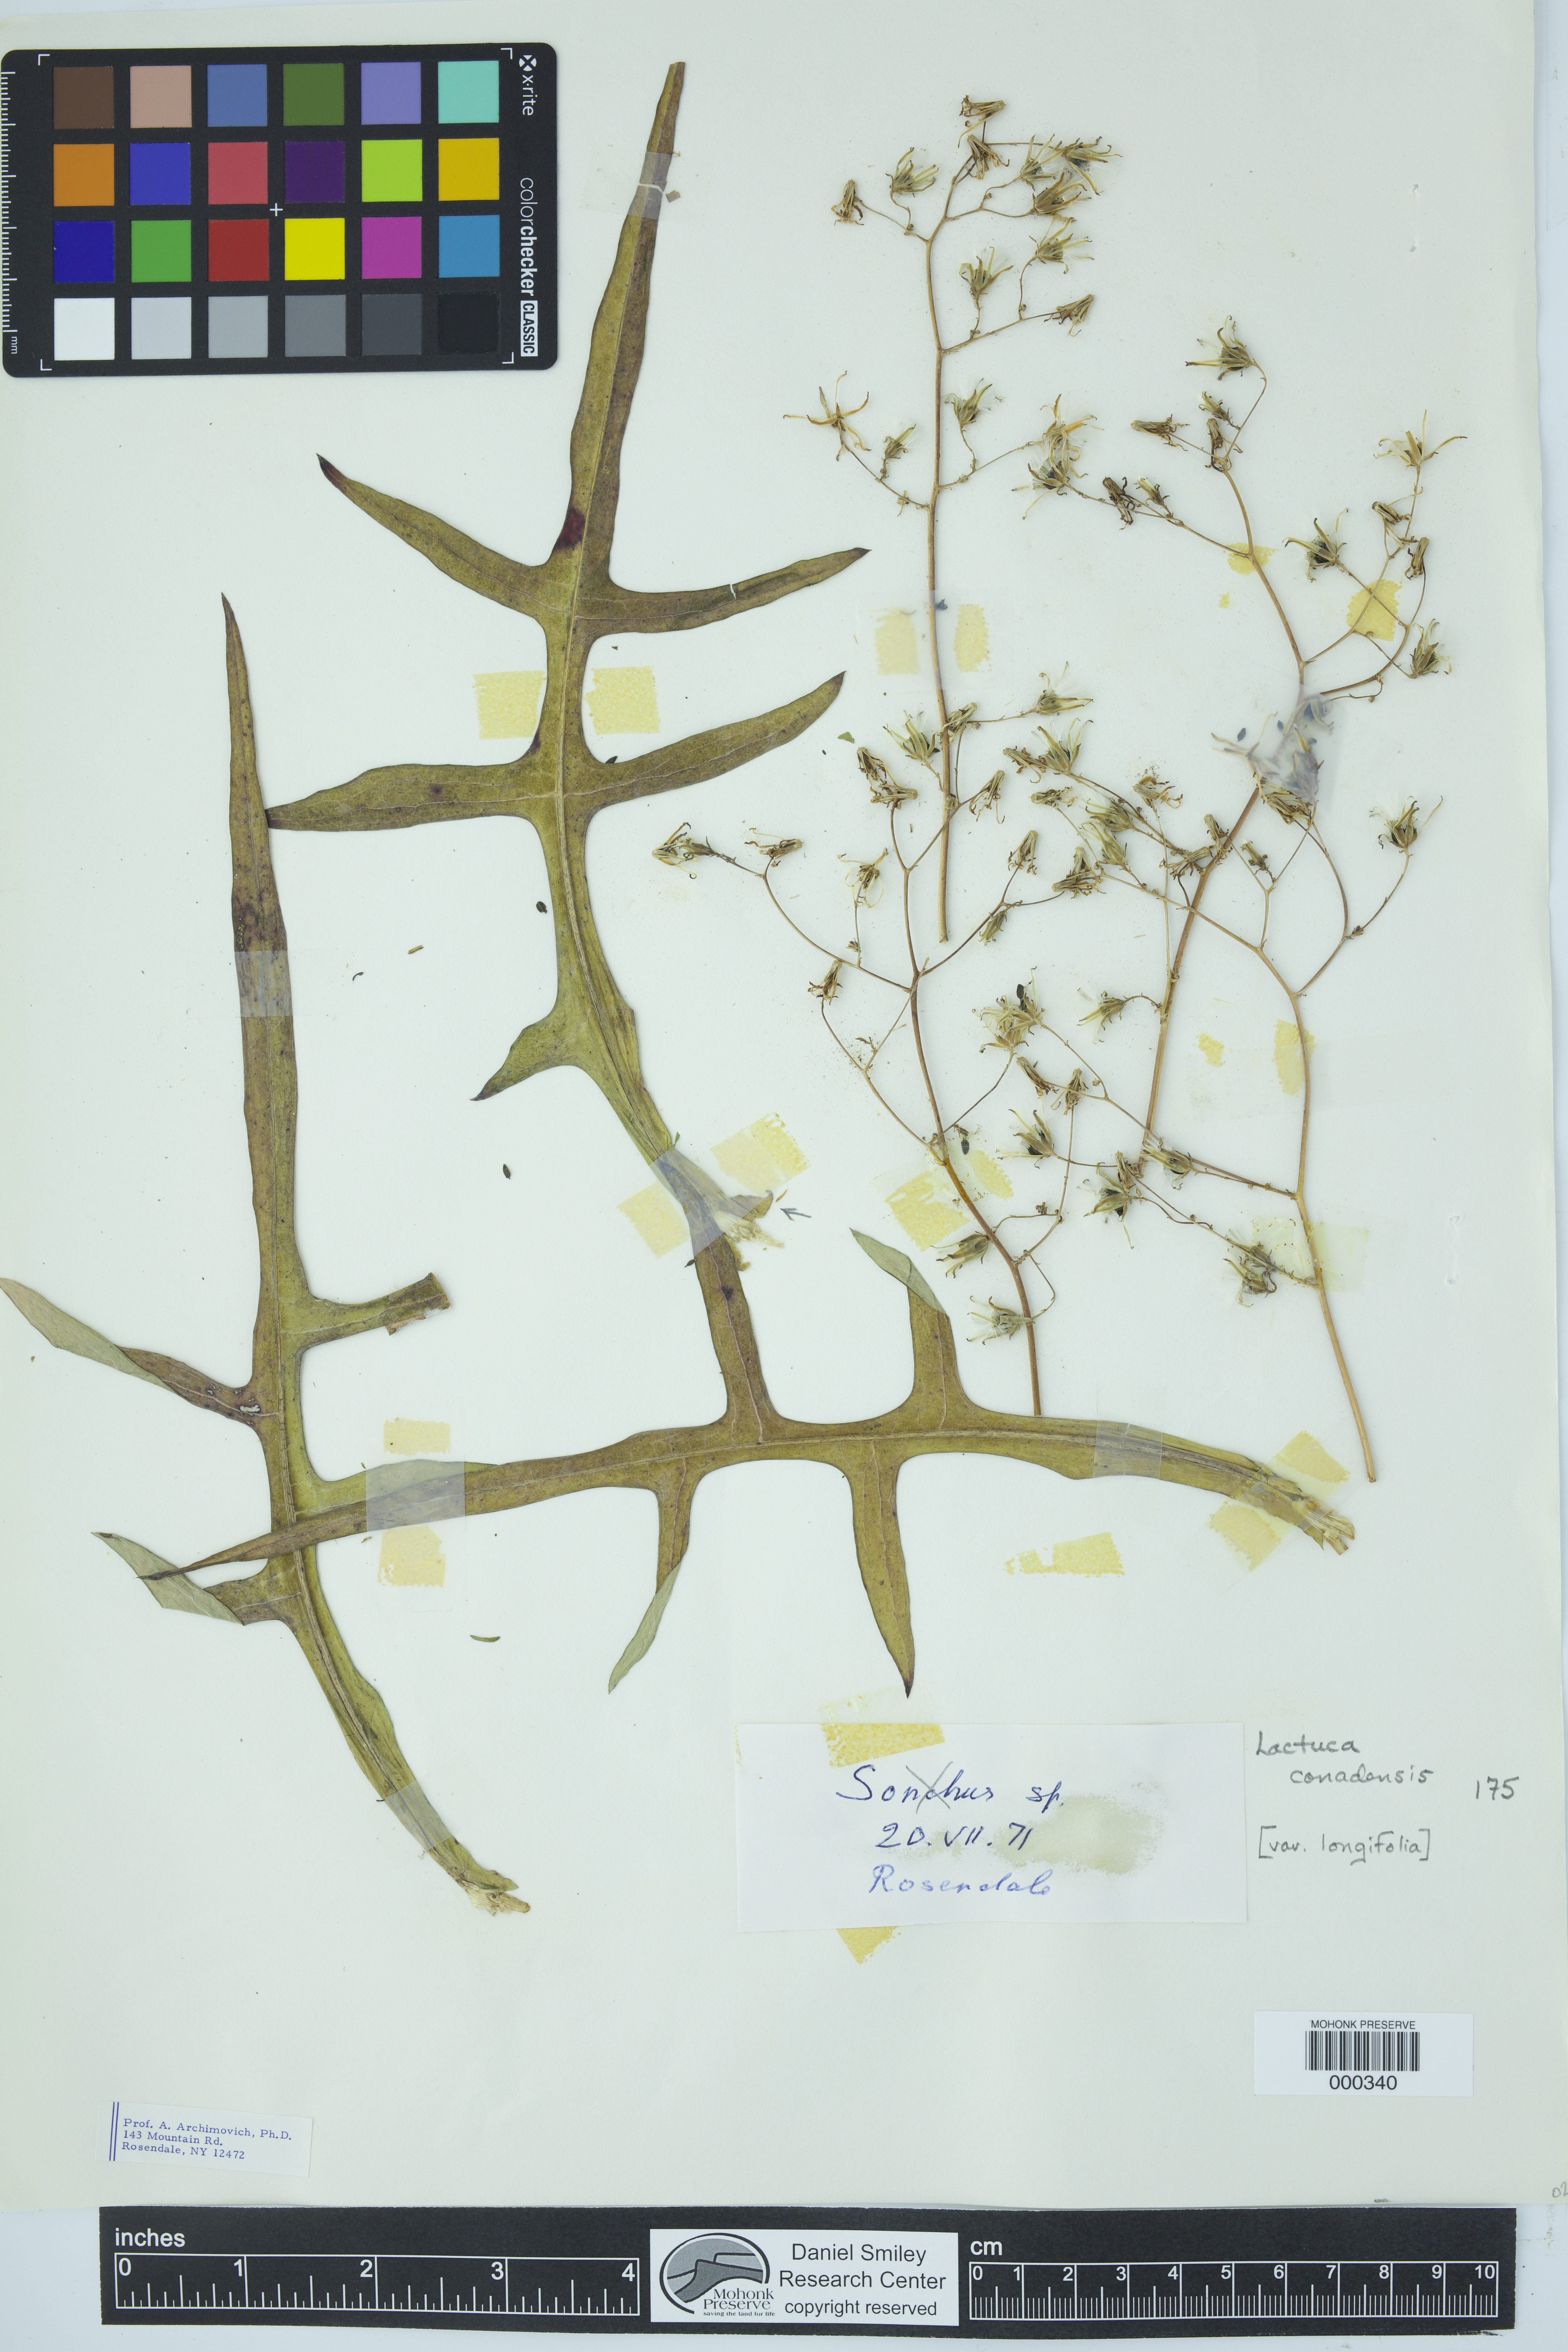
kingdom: Plantae
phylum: Tracheophyta
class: Magnoliopsida
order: Asterales
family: Asteraceae
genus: Lactuca
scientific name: Lactuca canadensis
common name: Canada lettuce
